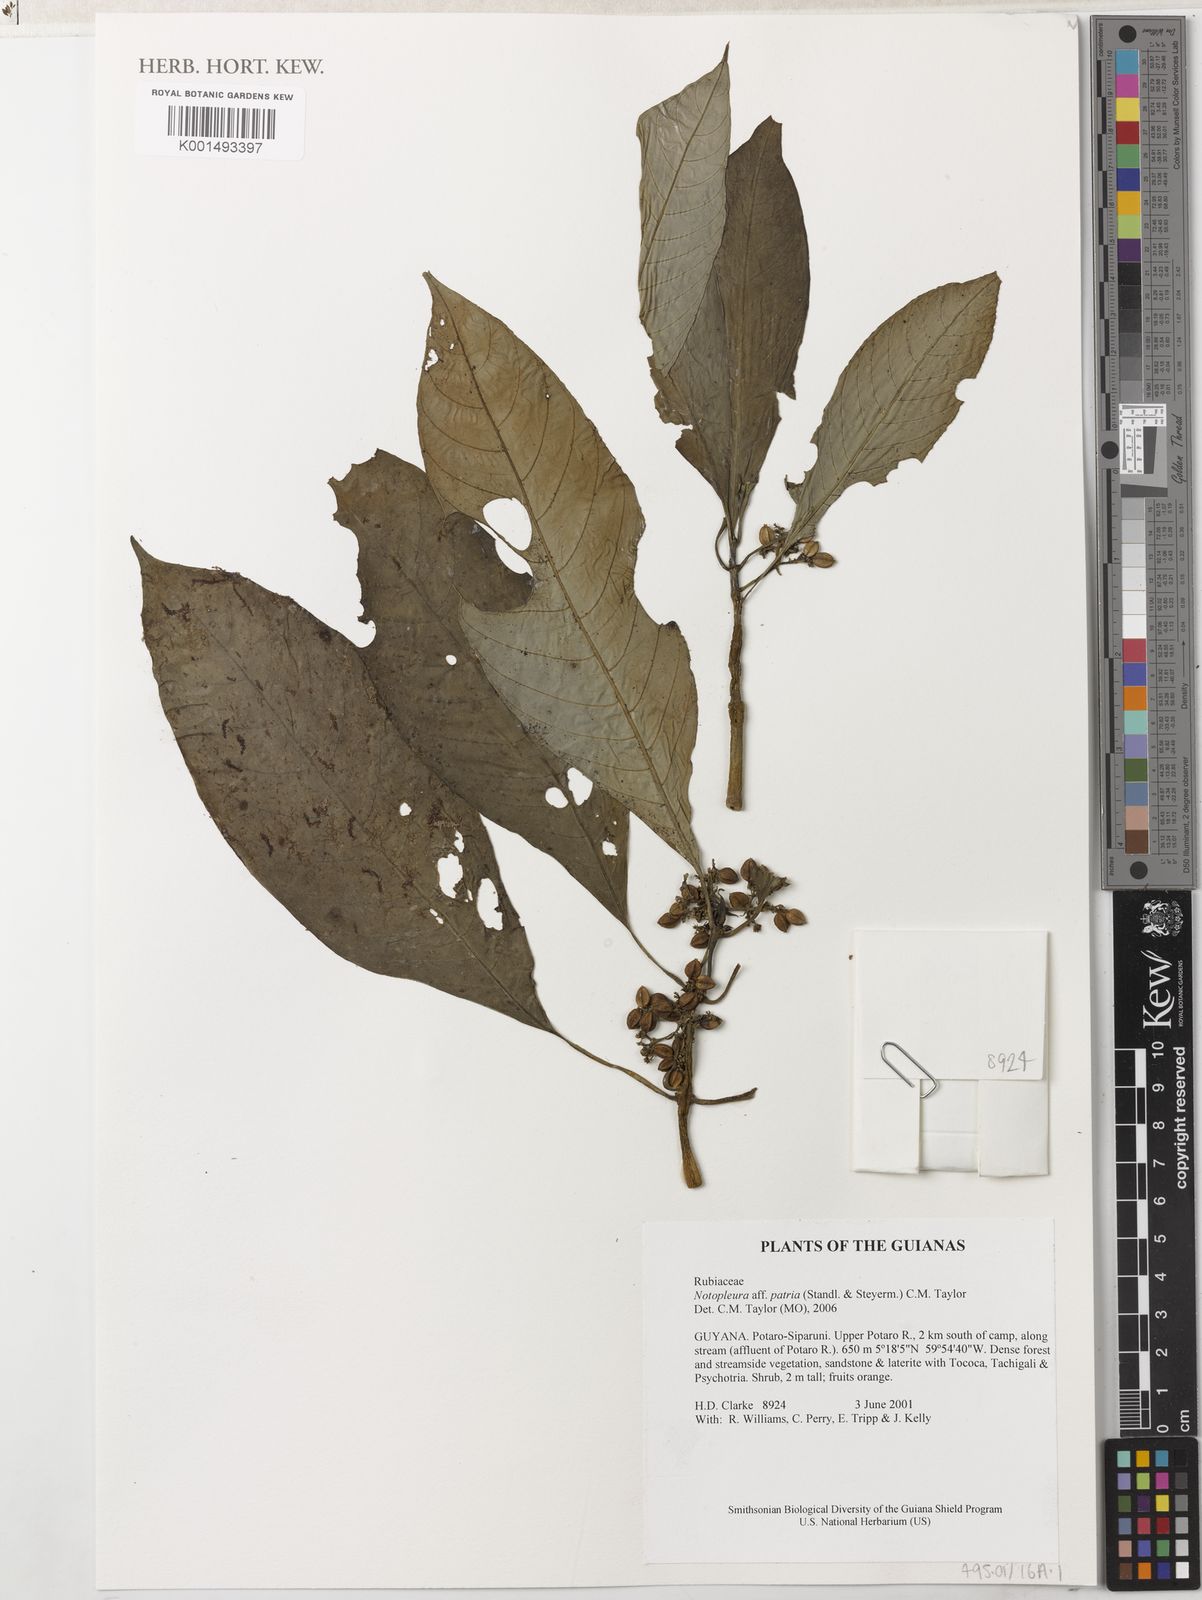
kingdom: Plantae
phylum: Tracheophyta
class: Magnoliopsida
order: Gentianales
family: Rubiaceae
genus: Notopleura
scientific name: Notopleura patria
